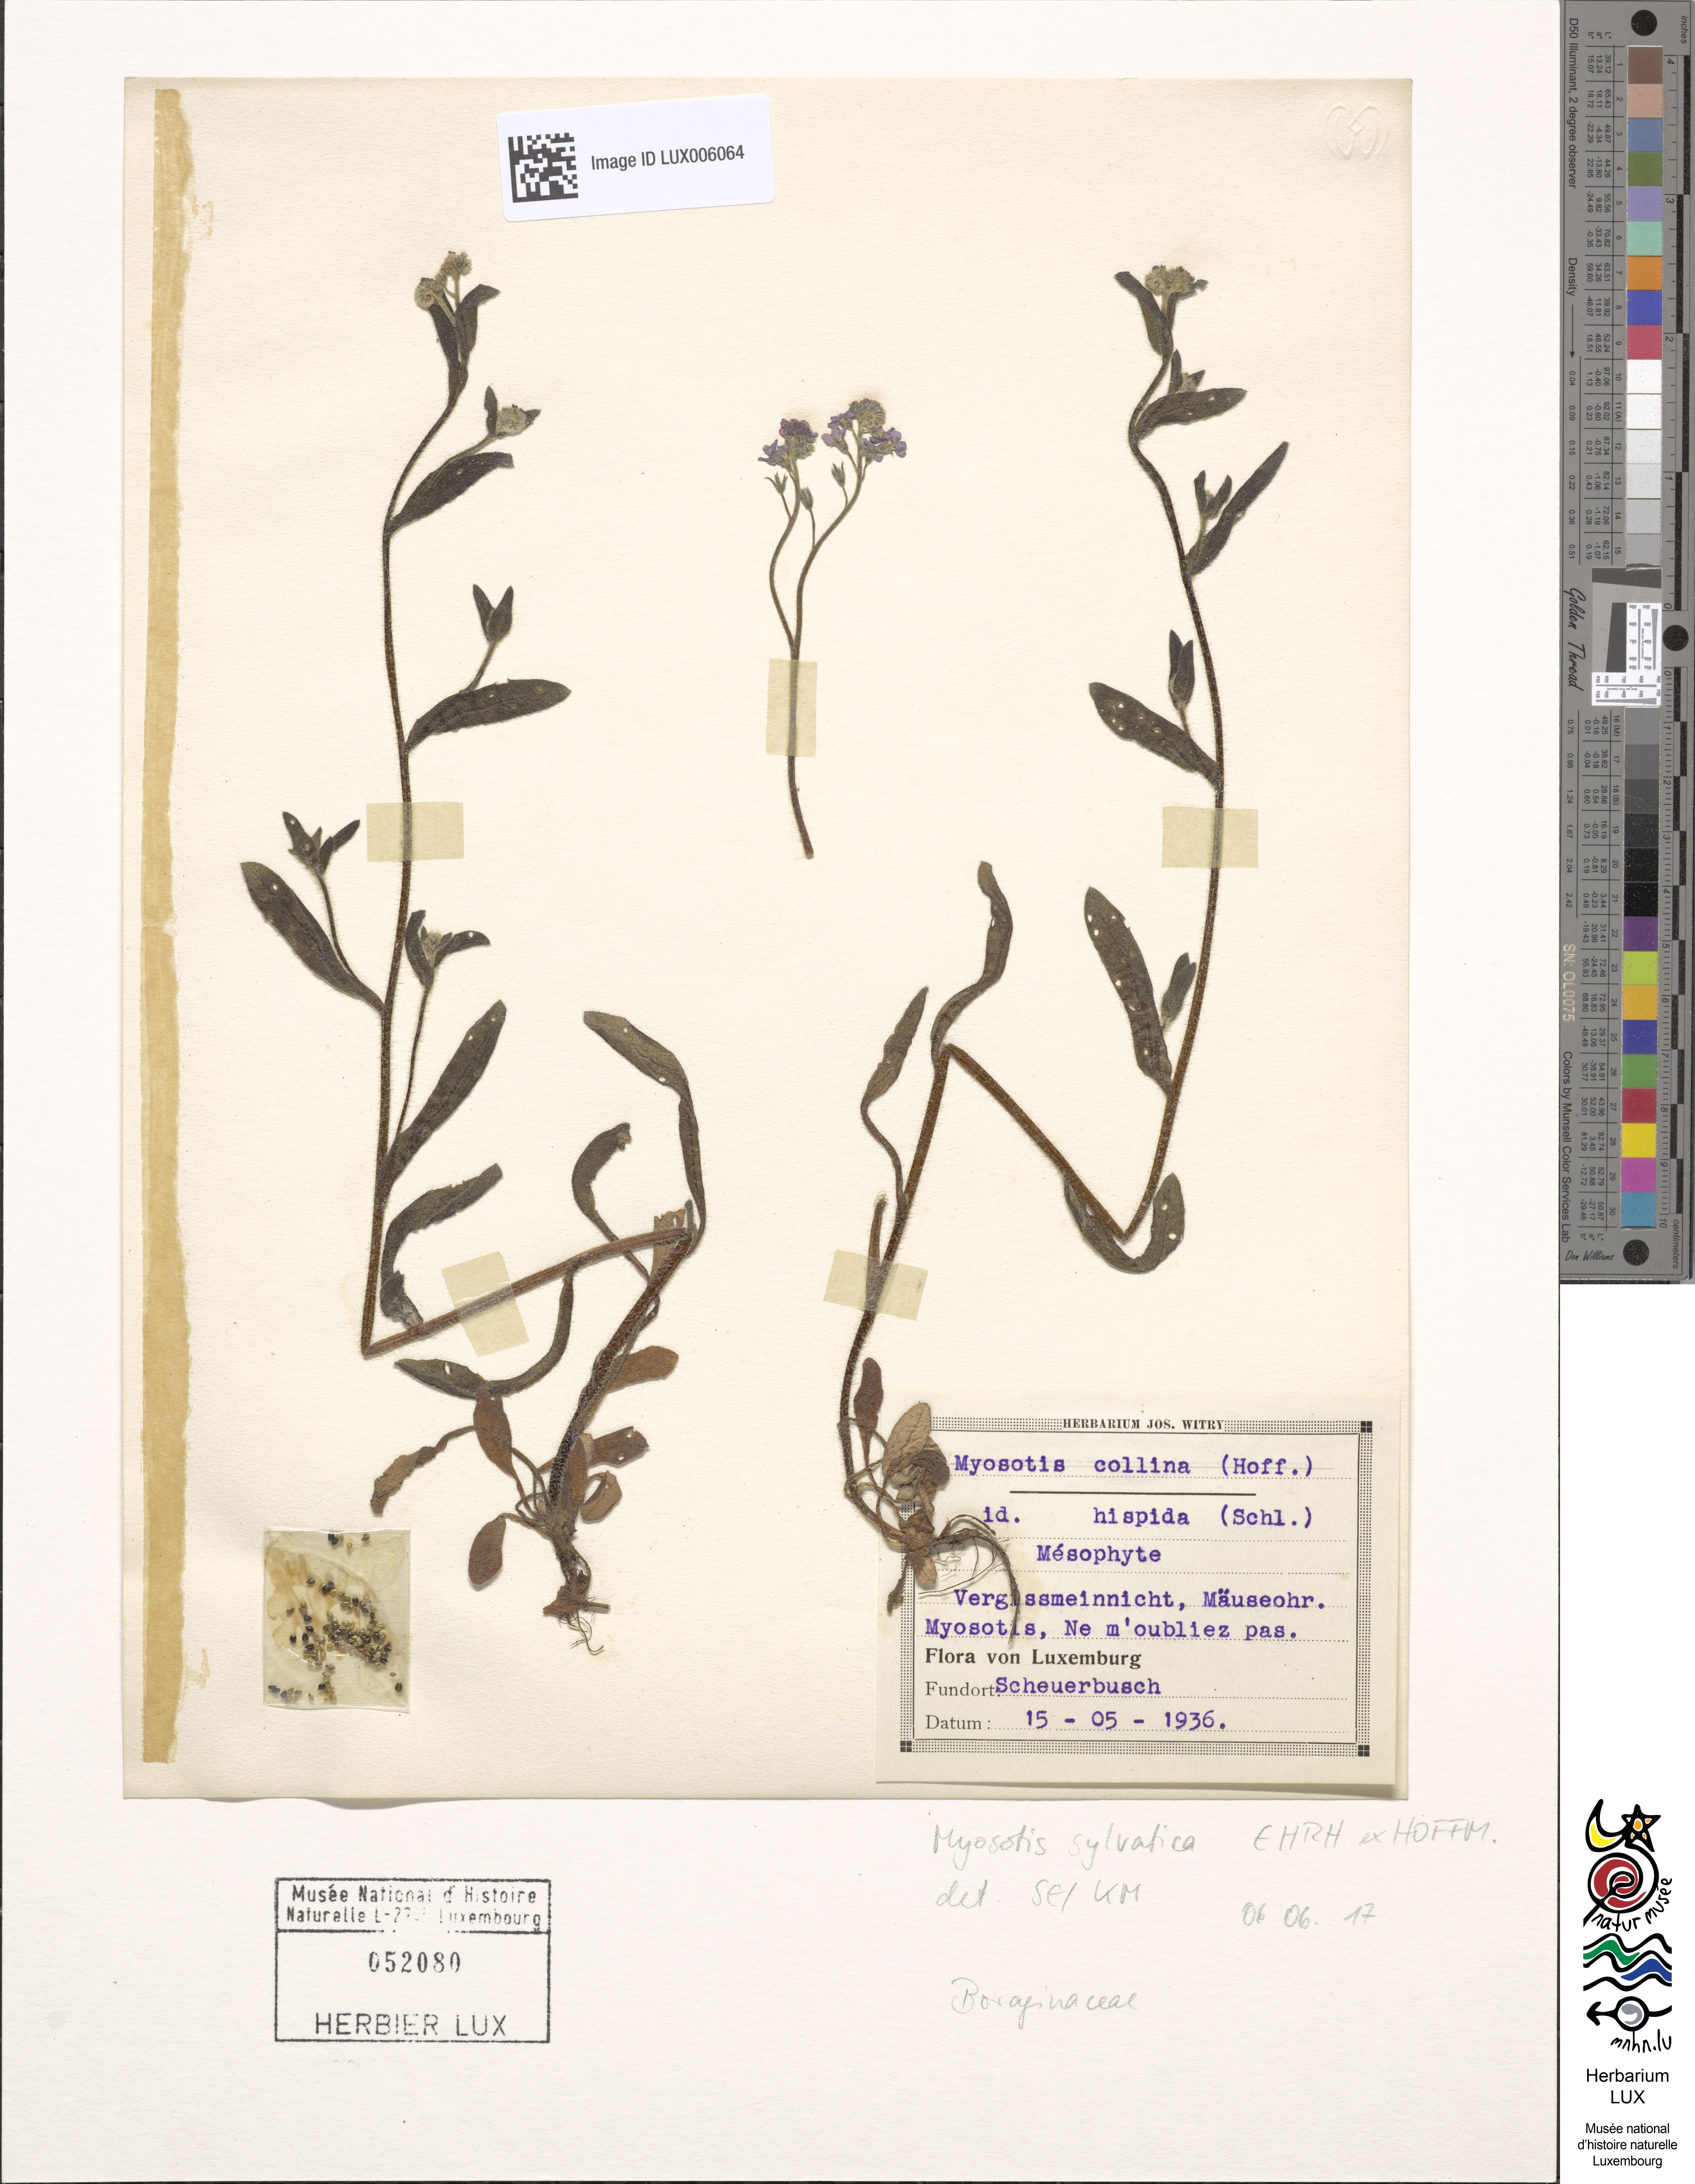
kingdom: Plantae
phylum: Tracheophyta
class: Magnoliopsida
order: Boraginales
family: Boraginaceae
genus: Myosotis
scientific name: Myosotis sylvatica
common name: Wood forget-me-not
